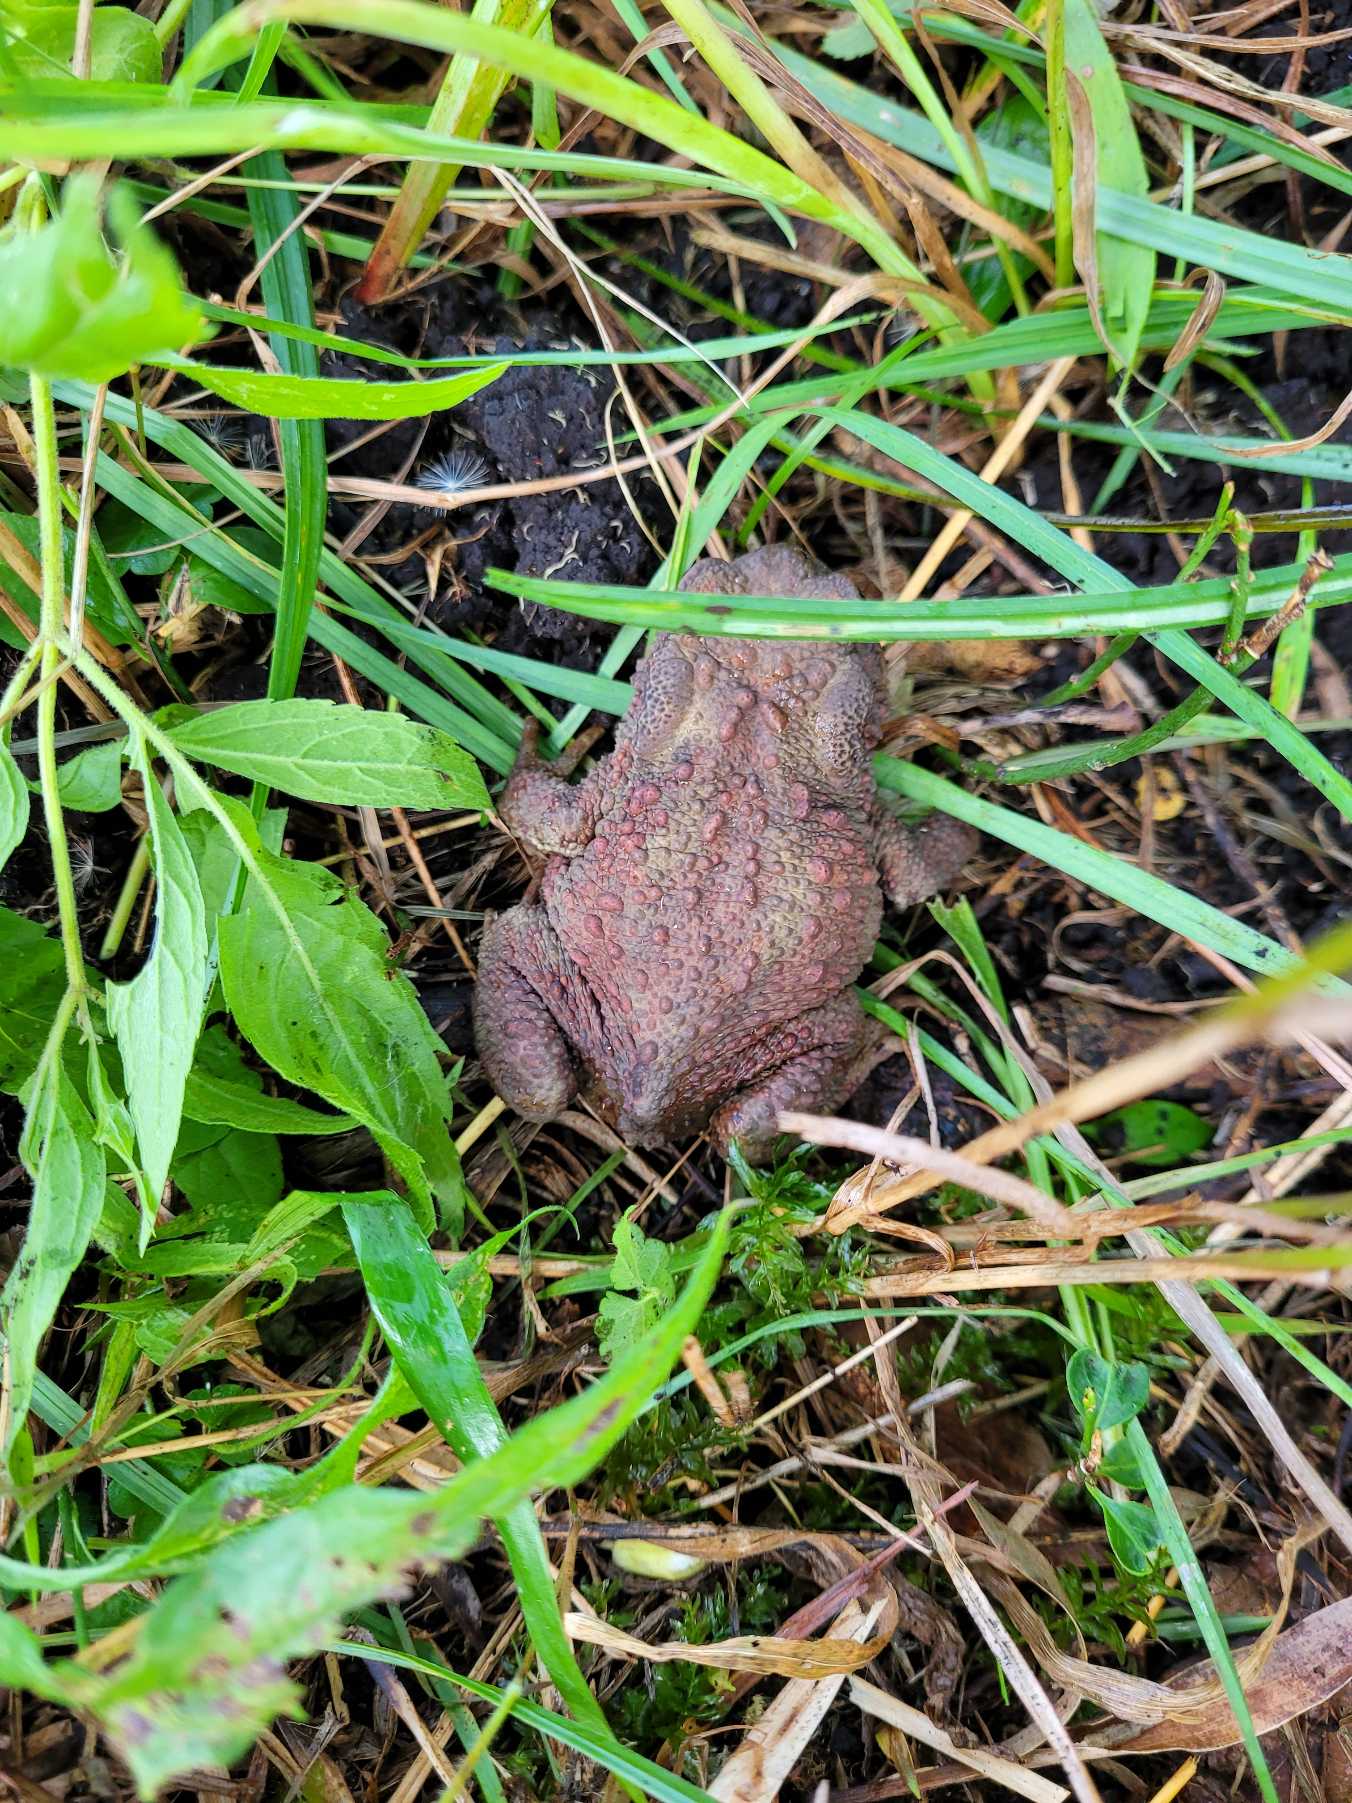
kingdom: Animalia
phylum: Chordata
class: Amphibia
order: Anura
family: Bufonidae
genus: Bufo
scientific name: Bufo bufo
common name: Skrubtudse
